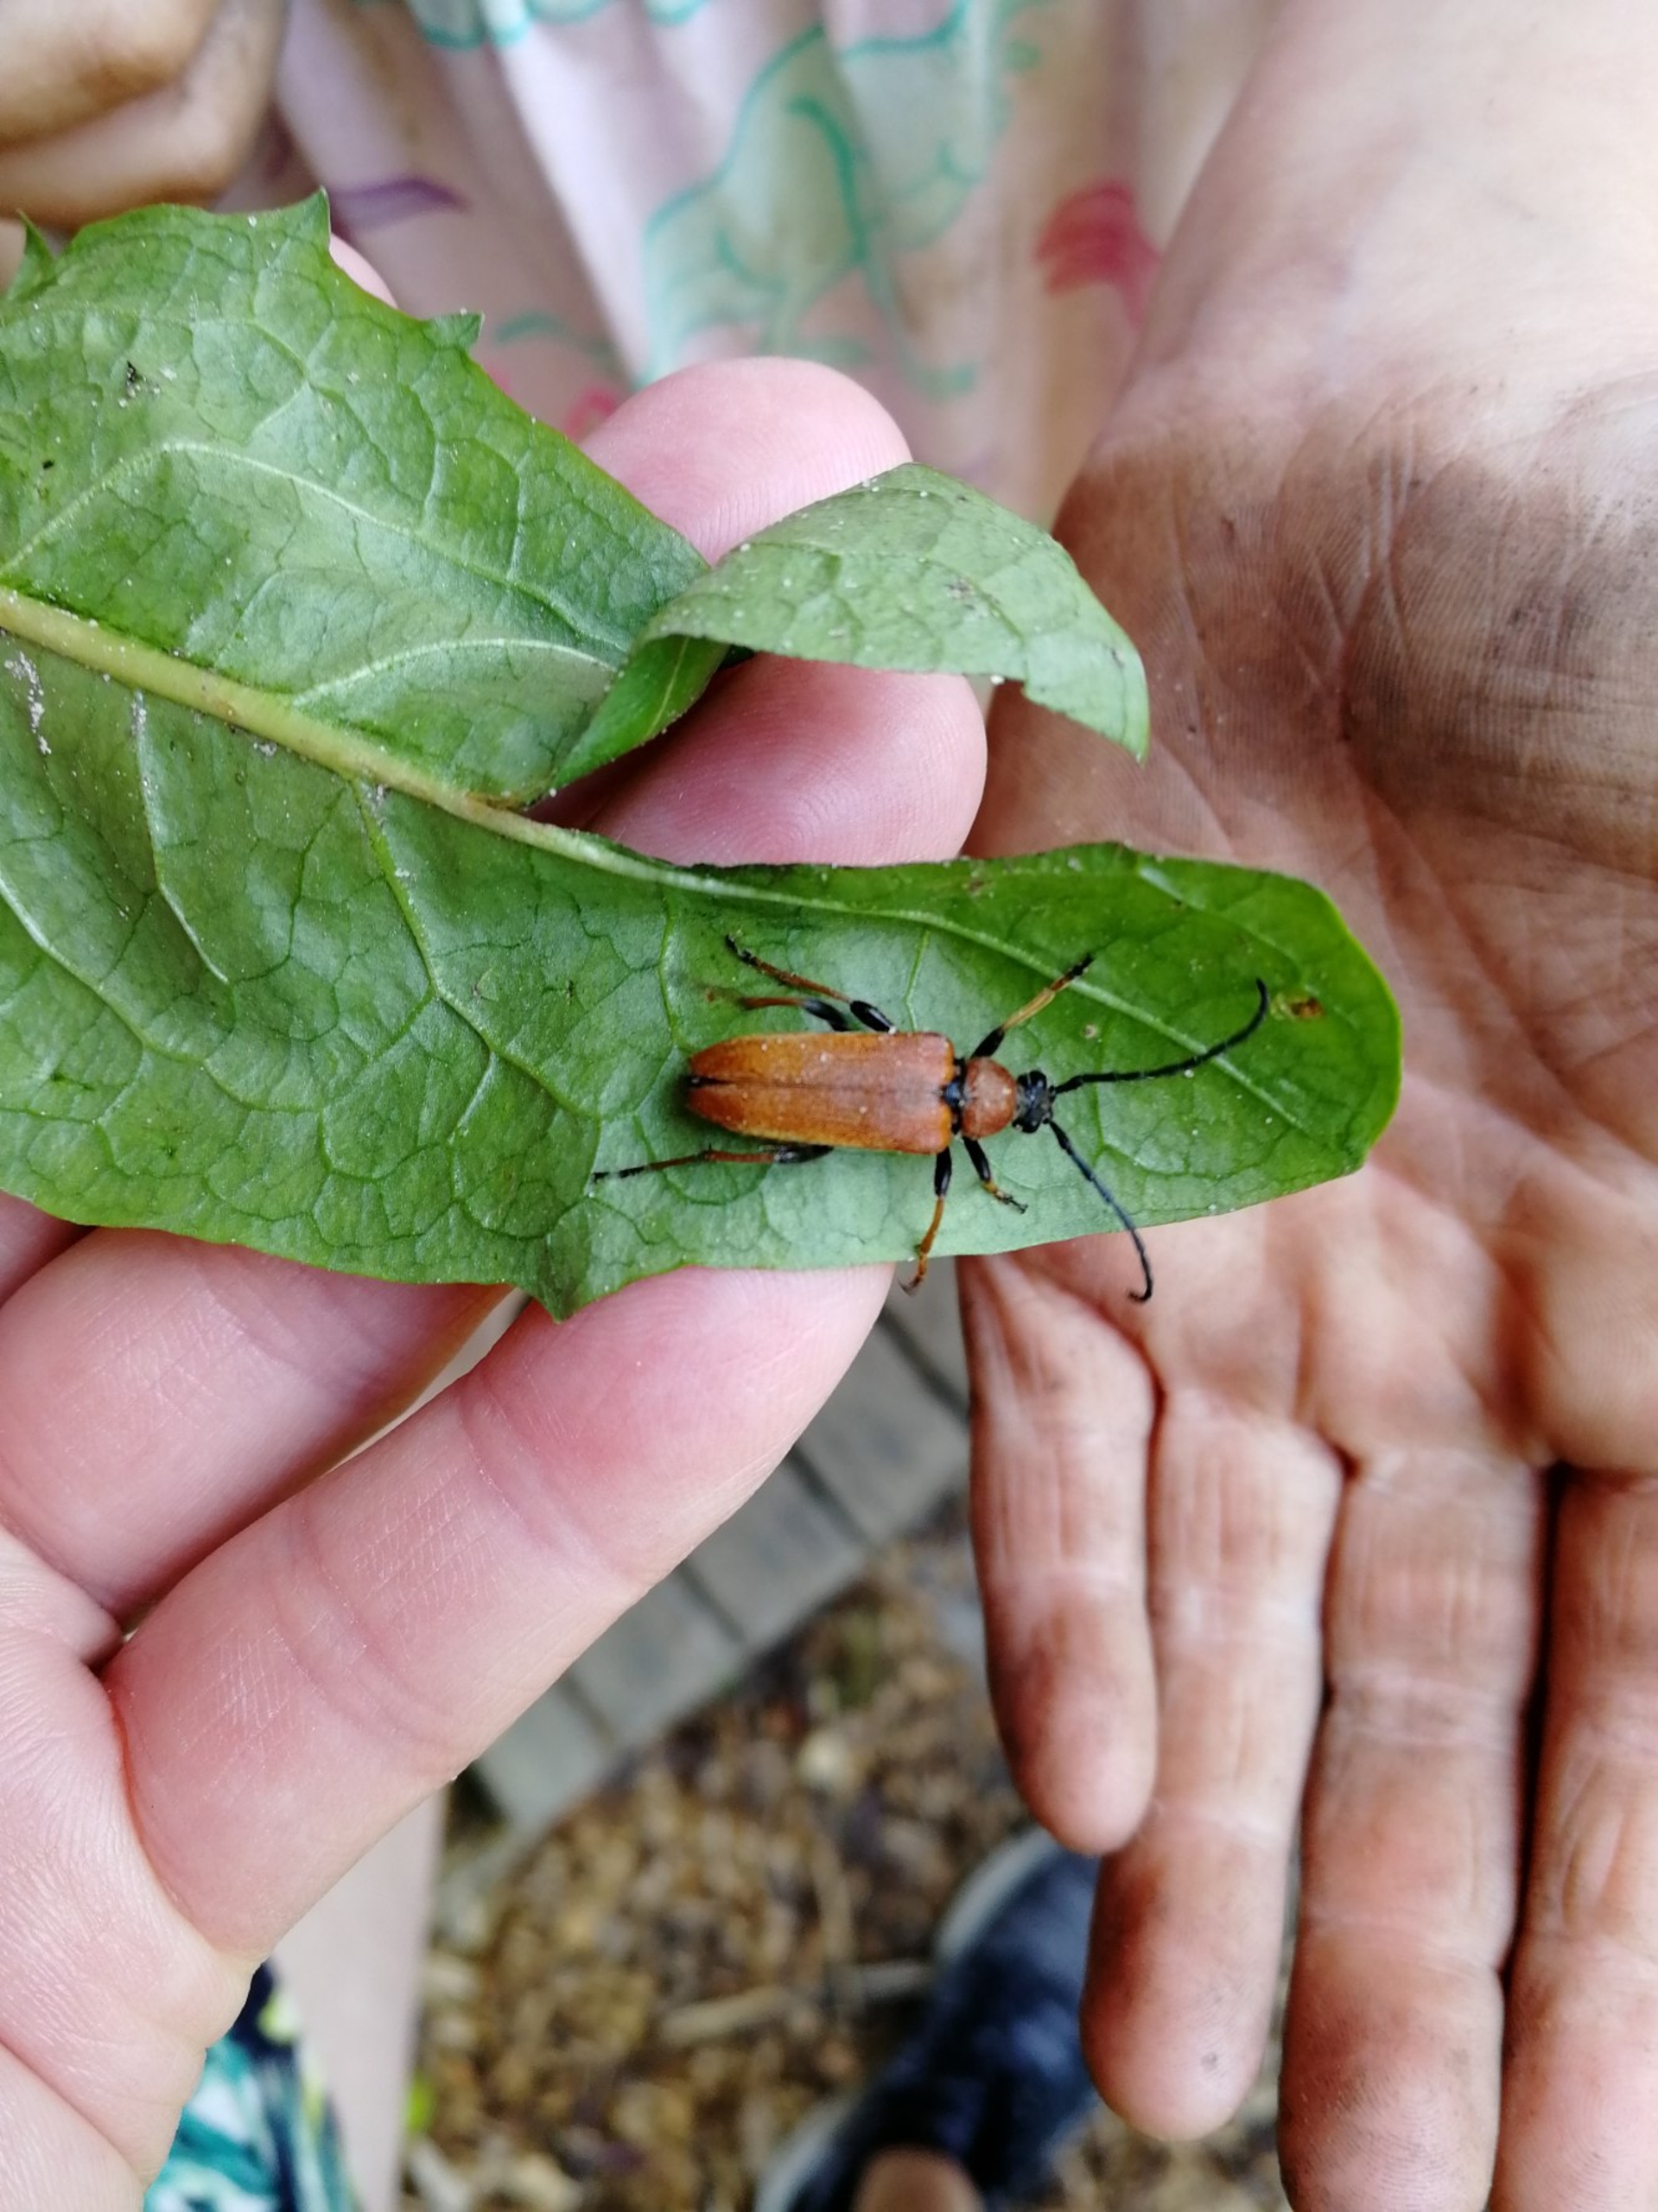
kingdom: Animalia
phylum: Arthropoda
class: Insecta
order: Coleoptera
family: Cerambycidae
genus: Stictoleptura
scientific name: Stictoleptura rubra
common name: Rød blomsterbuk
